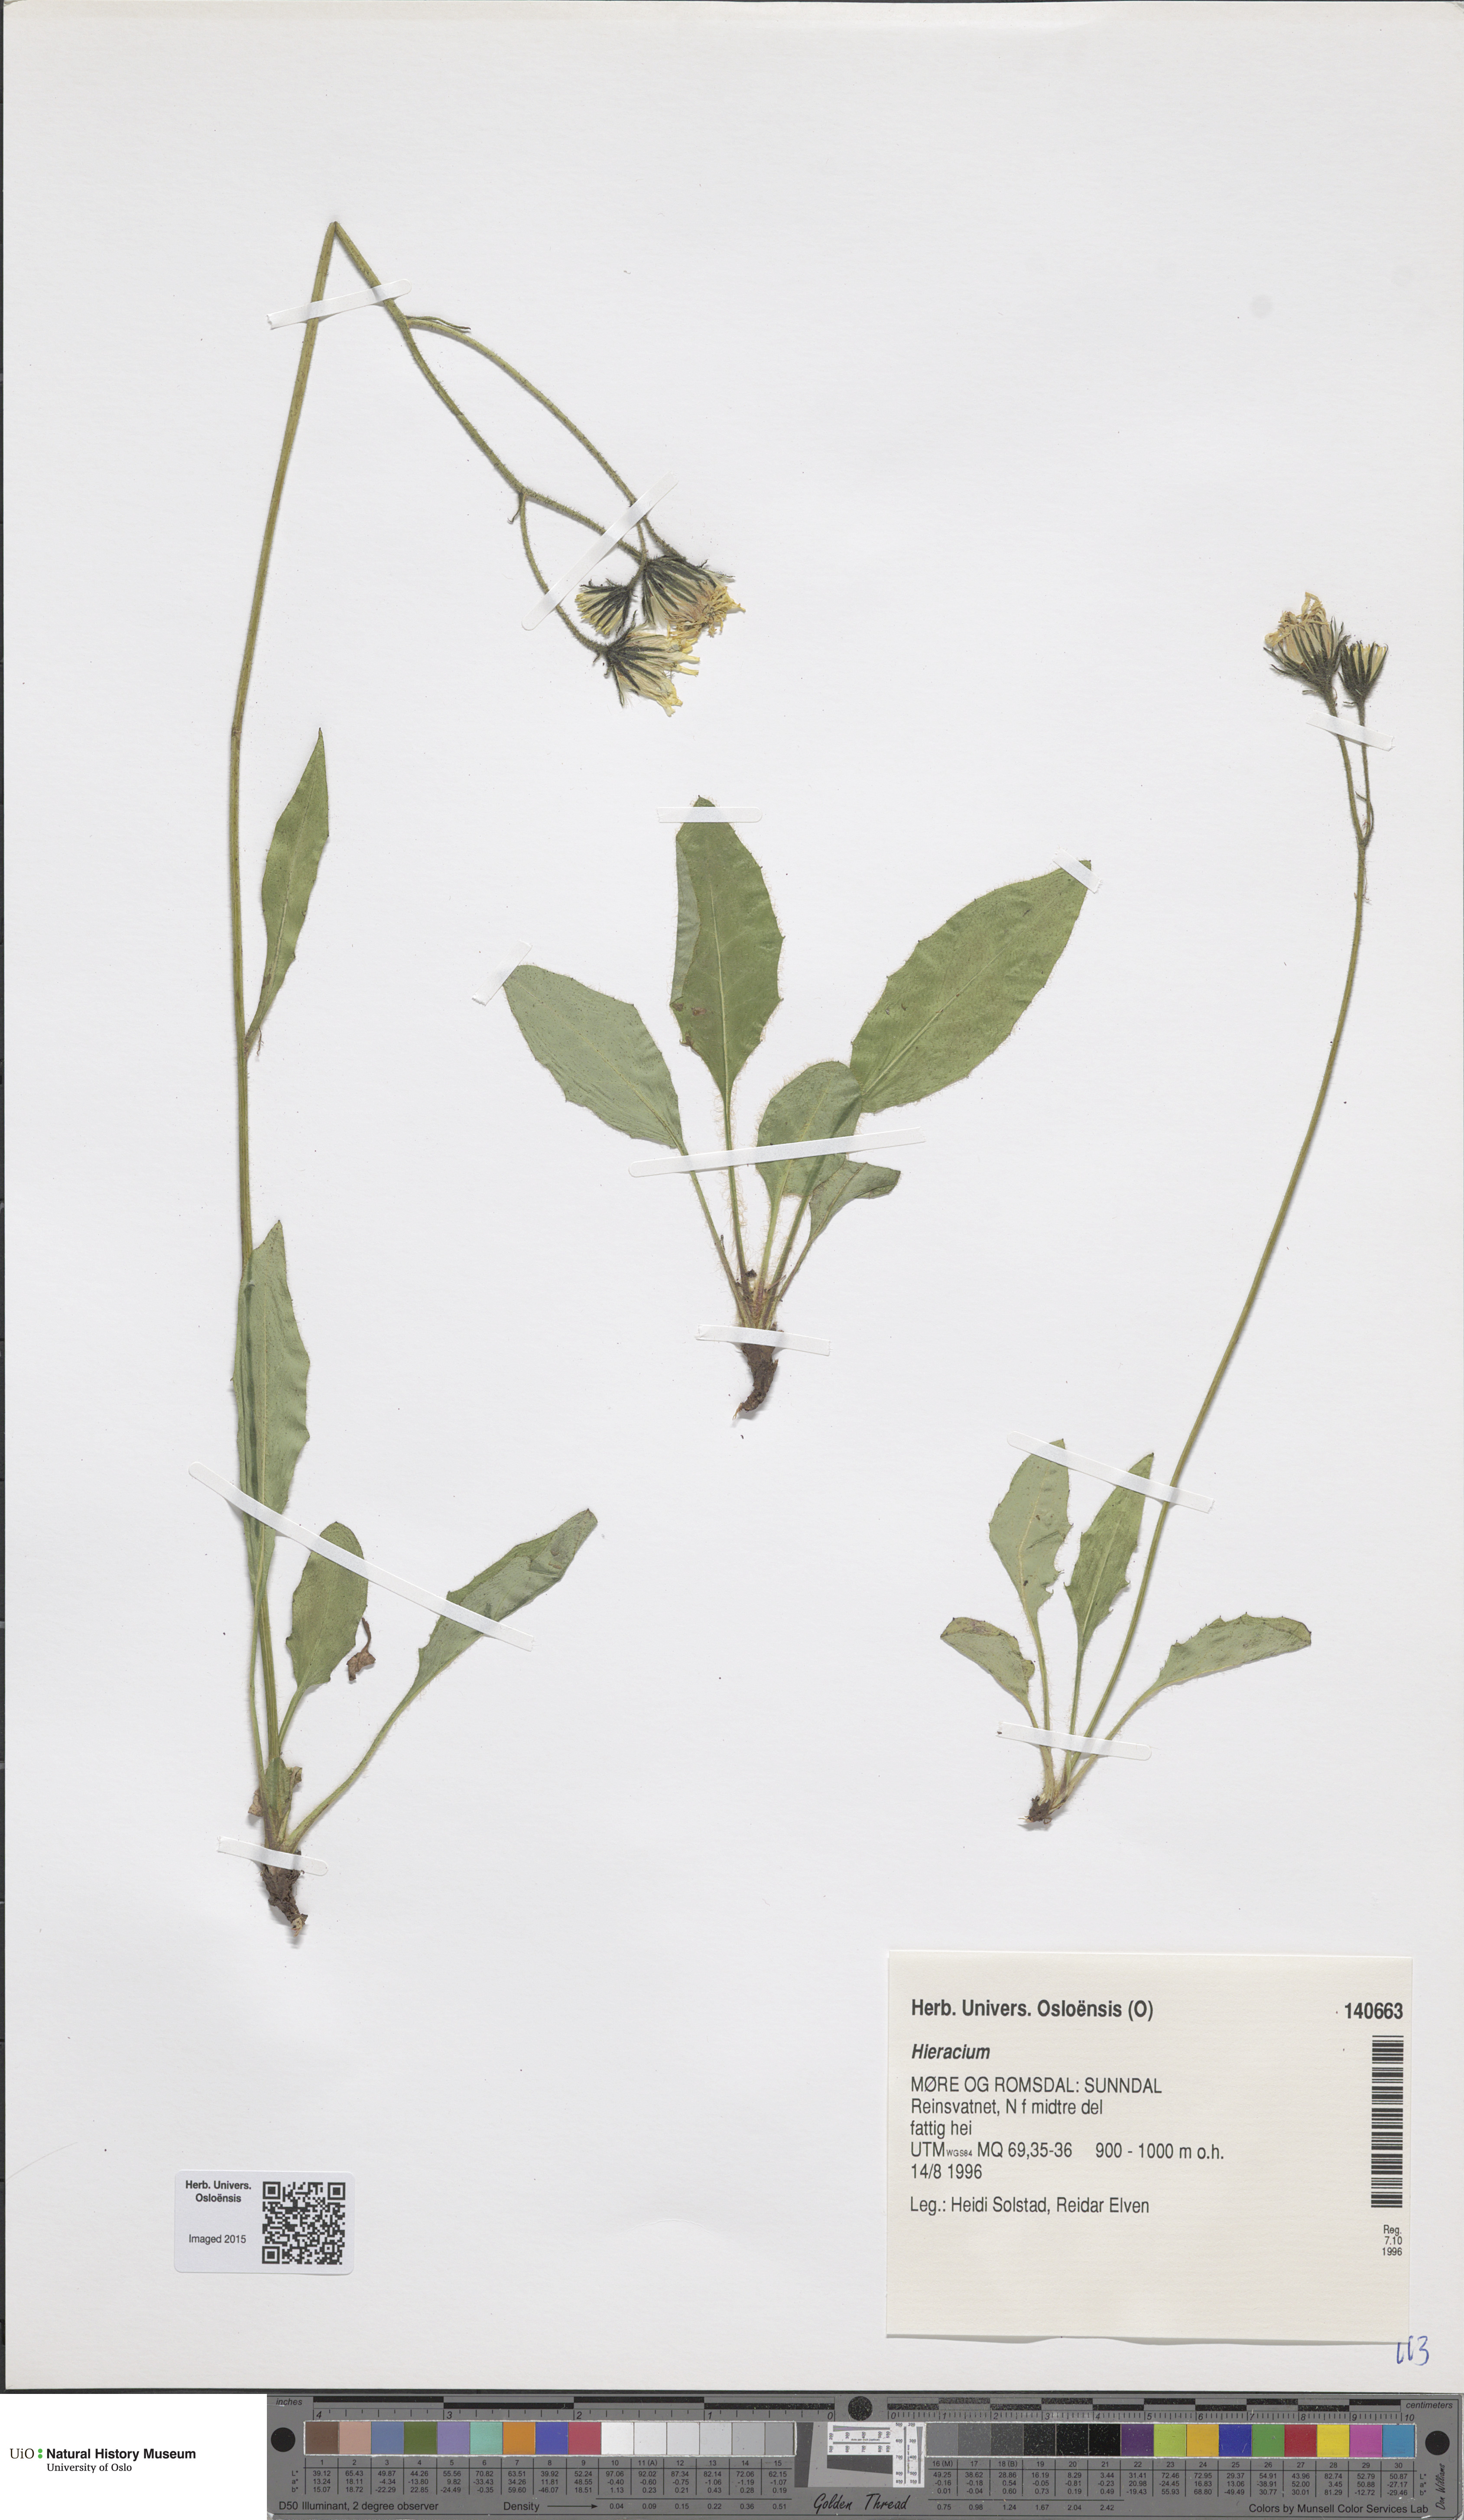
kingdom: Plantae
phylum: Tracheophyta
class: Magnoliopsida
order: Asterales
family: Asteraceae
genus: Hieracium
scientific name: Hieracium
